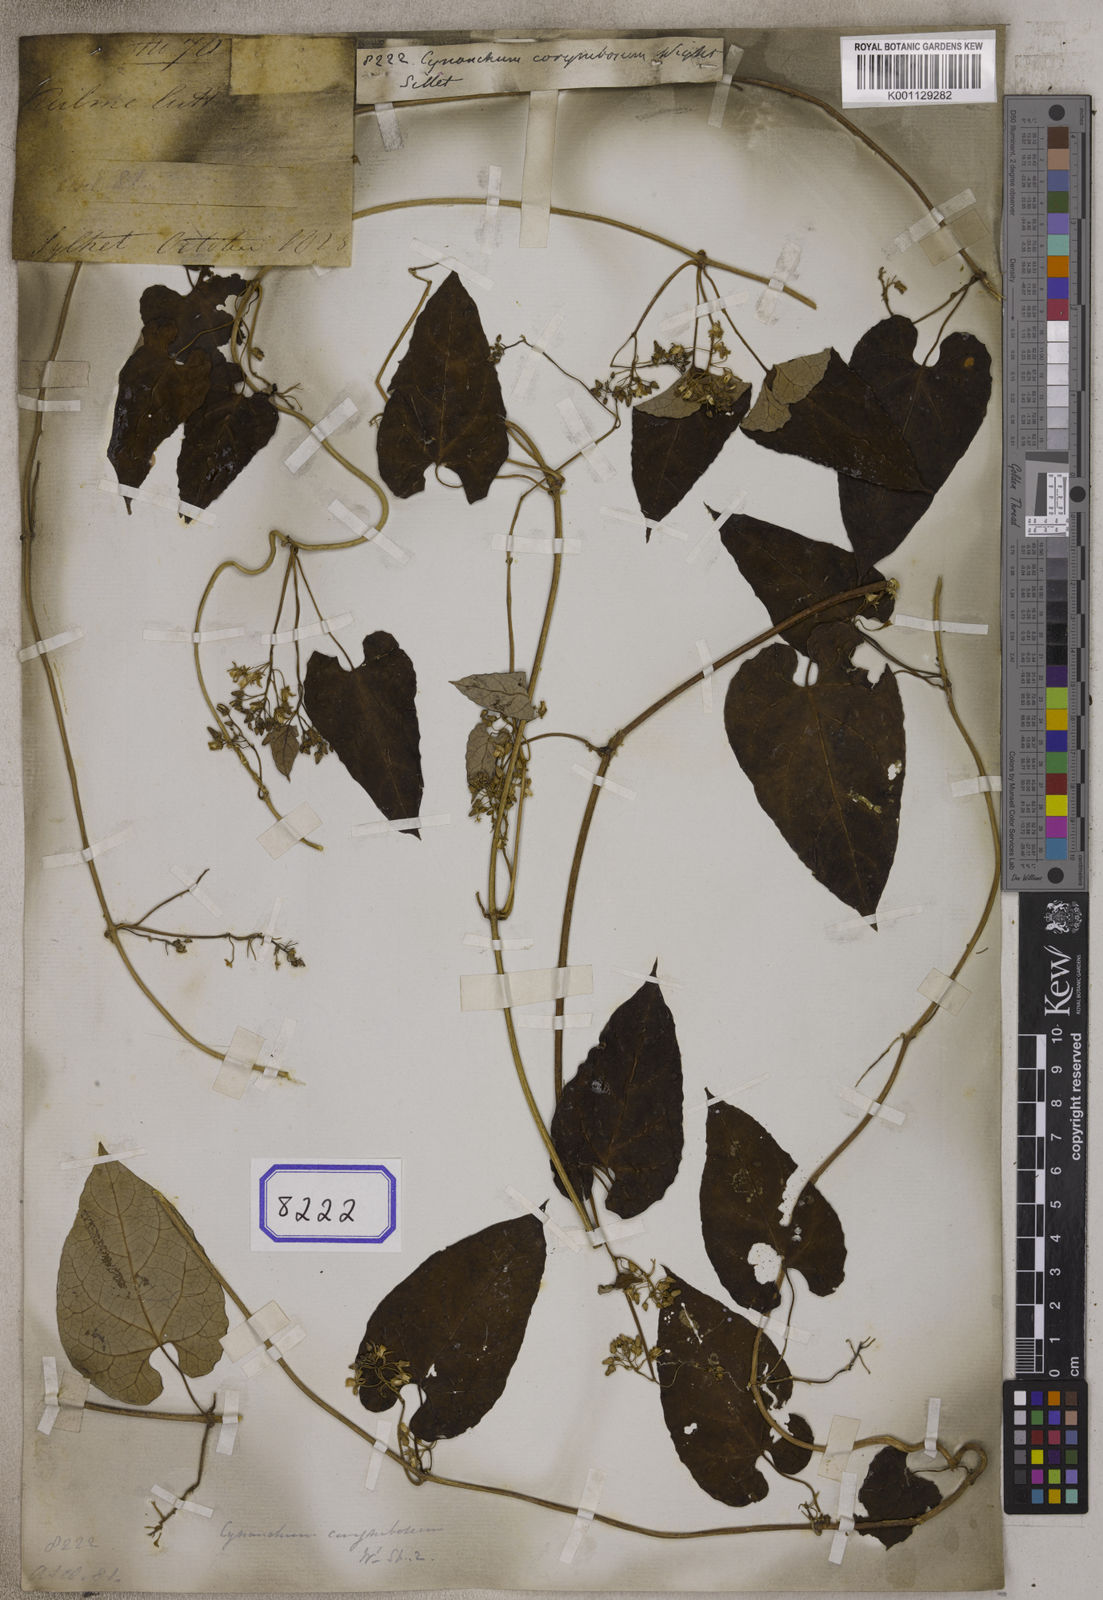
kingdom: Plantae
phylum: Tracheophyta
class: Magnoliopsida
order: Gentianales
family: Apocynaceae
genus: Cynanchum
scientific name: Cynanchum corymbosum
